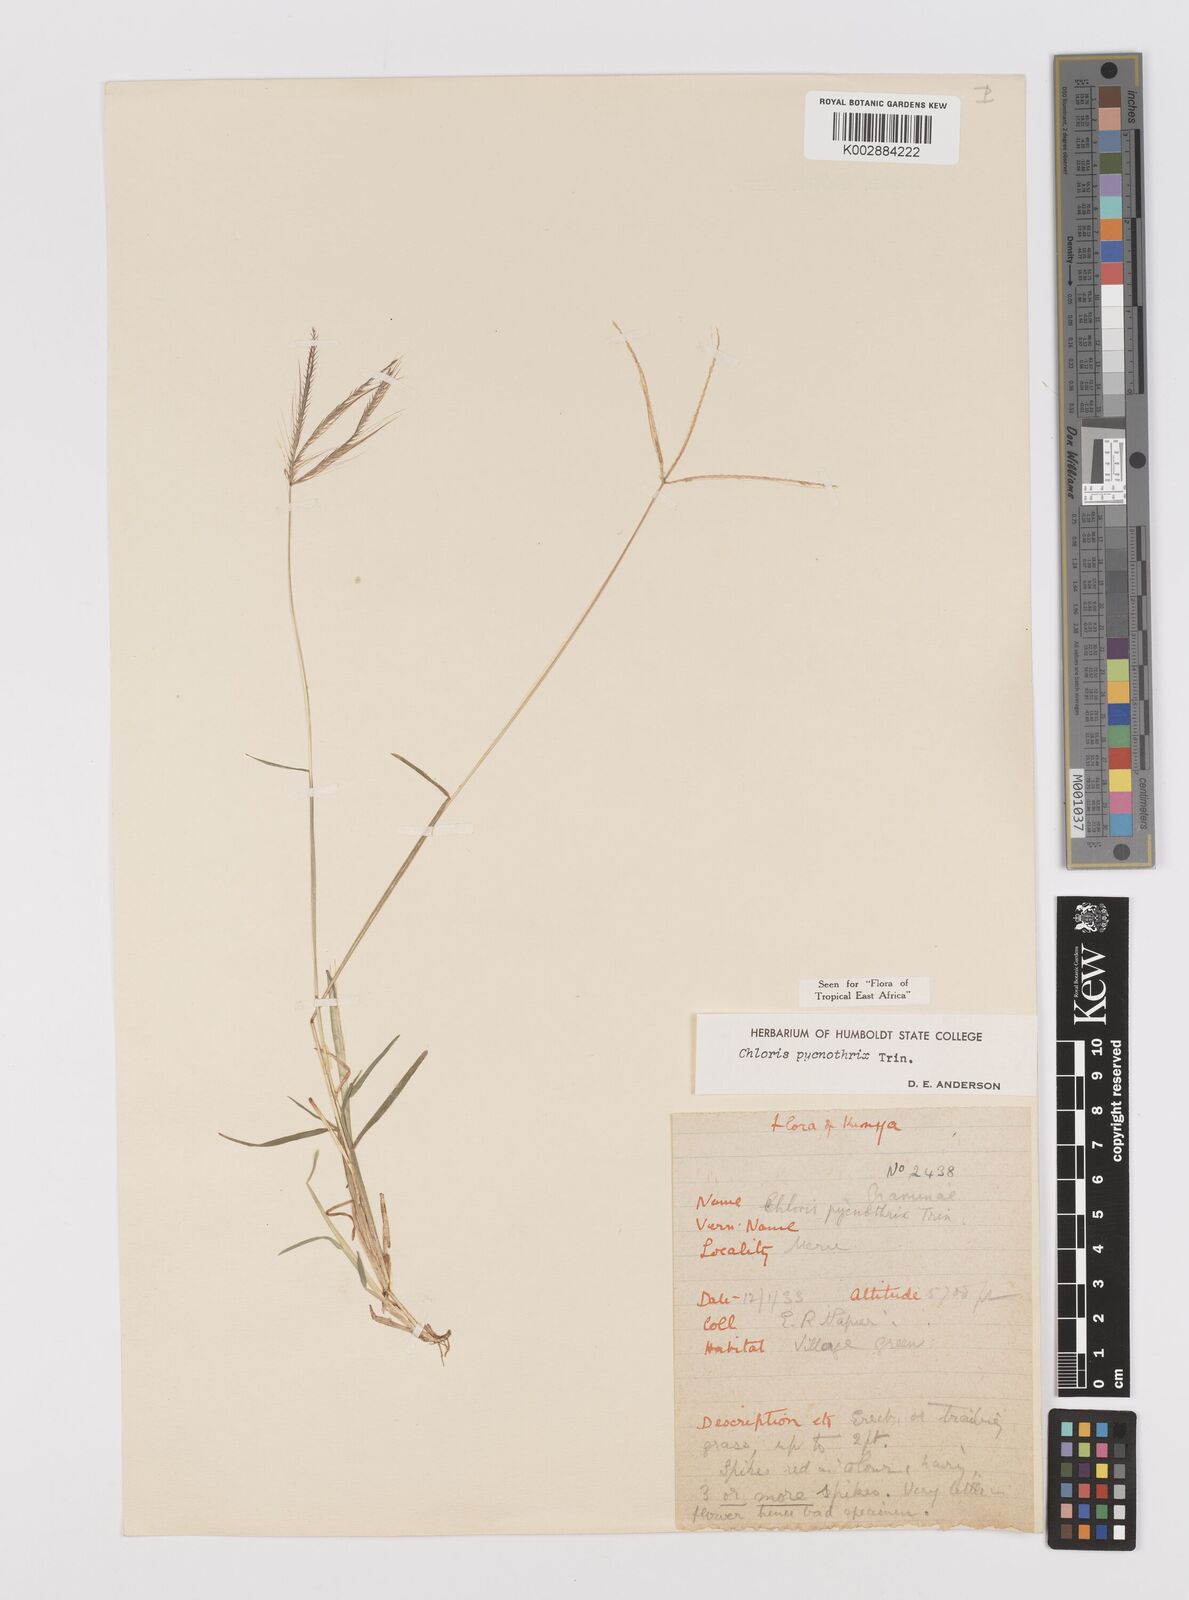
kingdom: Plantae
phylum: Tracheophyta
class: Liliopsida
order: Poales
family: Poaceae
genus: Chloris
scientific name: Chloris pycnothrix
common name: Spiderweb chloris
